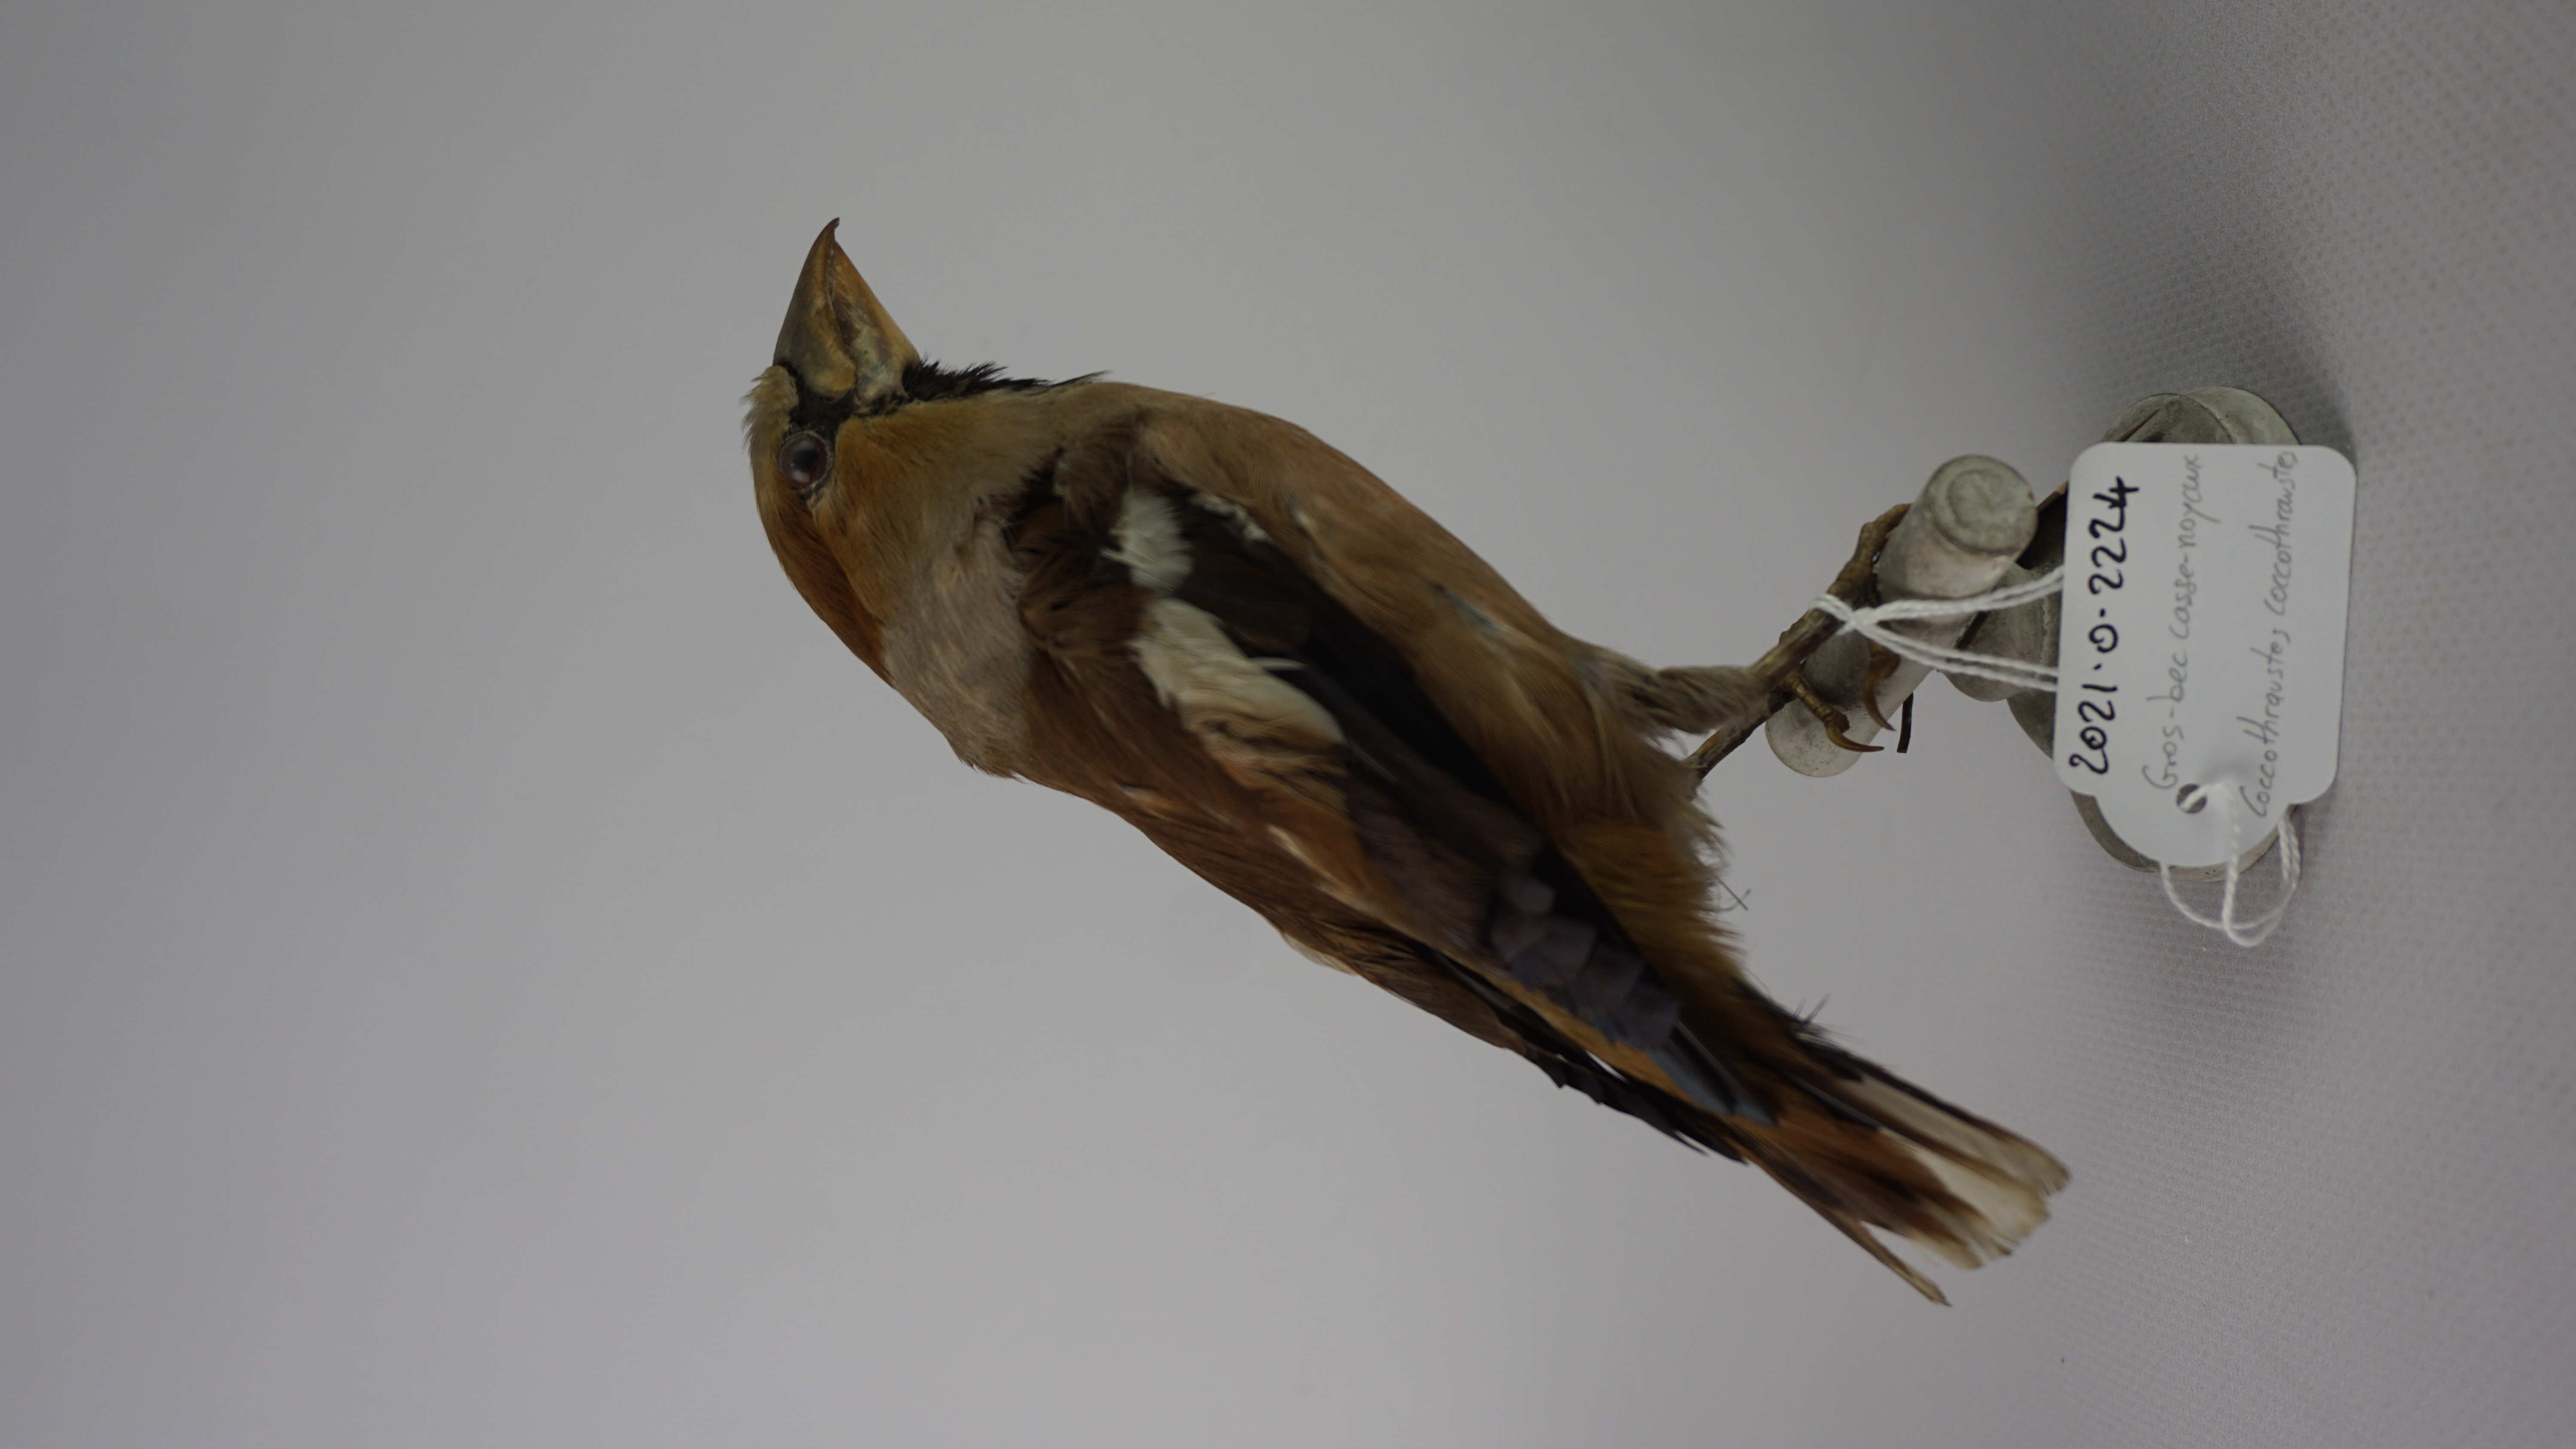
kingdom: Animalia
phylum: Chordata
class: Aves
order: Passeriformes
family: Fringillidae
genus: Coccothraustes
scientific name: Coccothraustes coccothraustes
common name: Hawfinch
